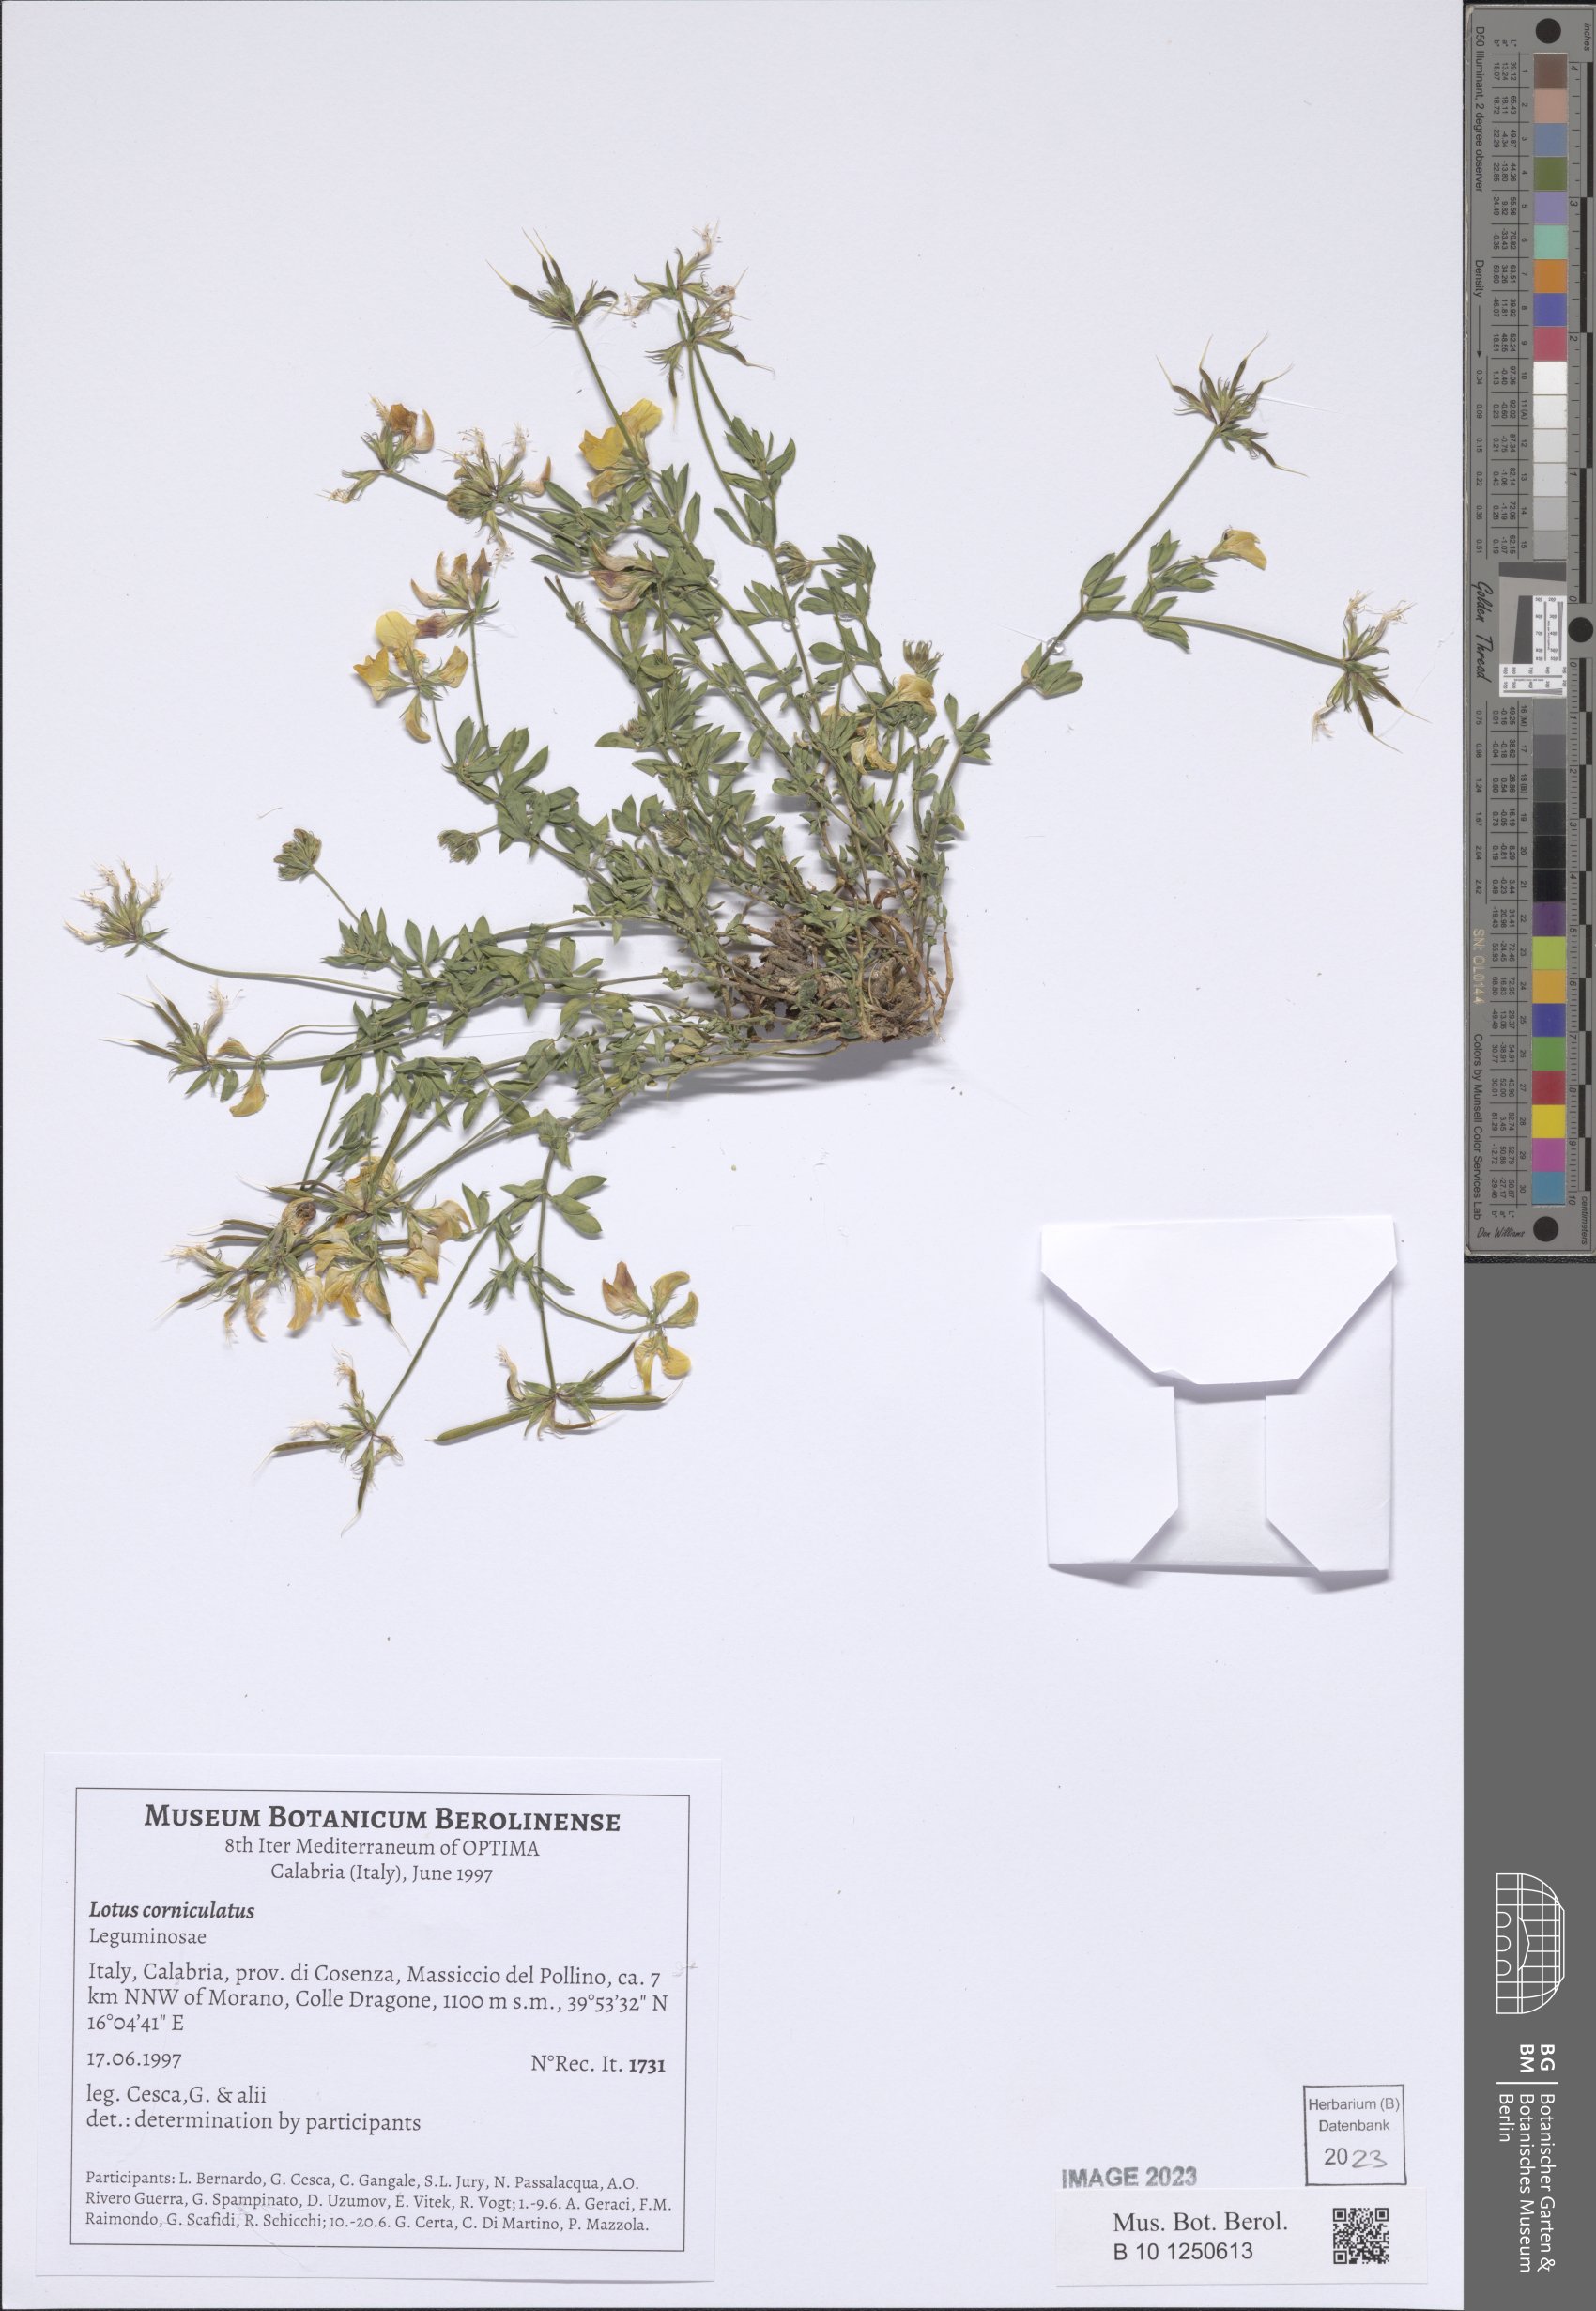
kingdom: Plantae
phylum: Tracheophyta
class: Magnoliopsida
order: Fabales
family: Fabaceae
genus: Lotus
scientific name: Lotus corniculatus
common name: Common bird's-foot-trefoil
